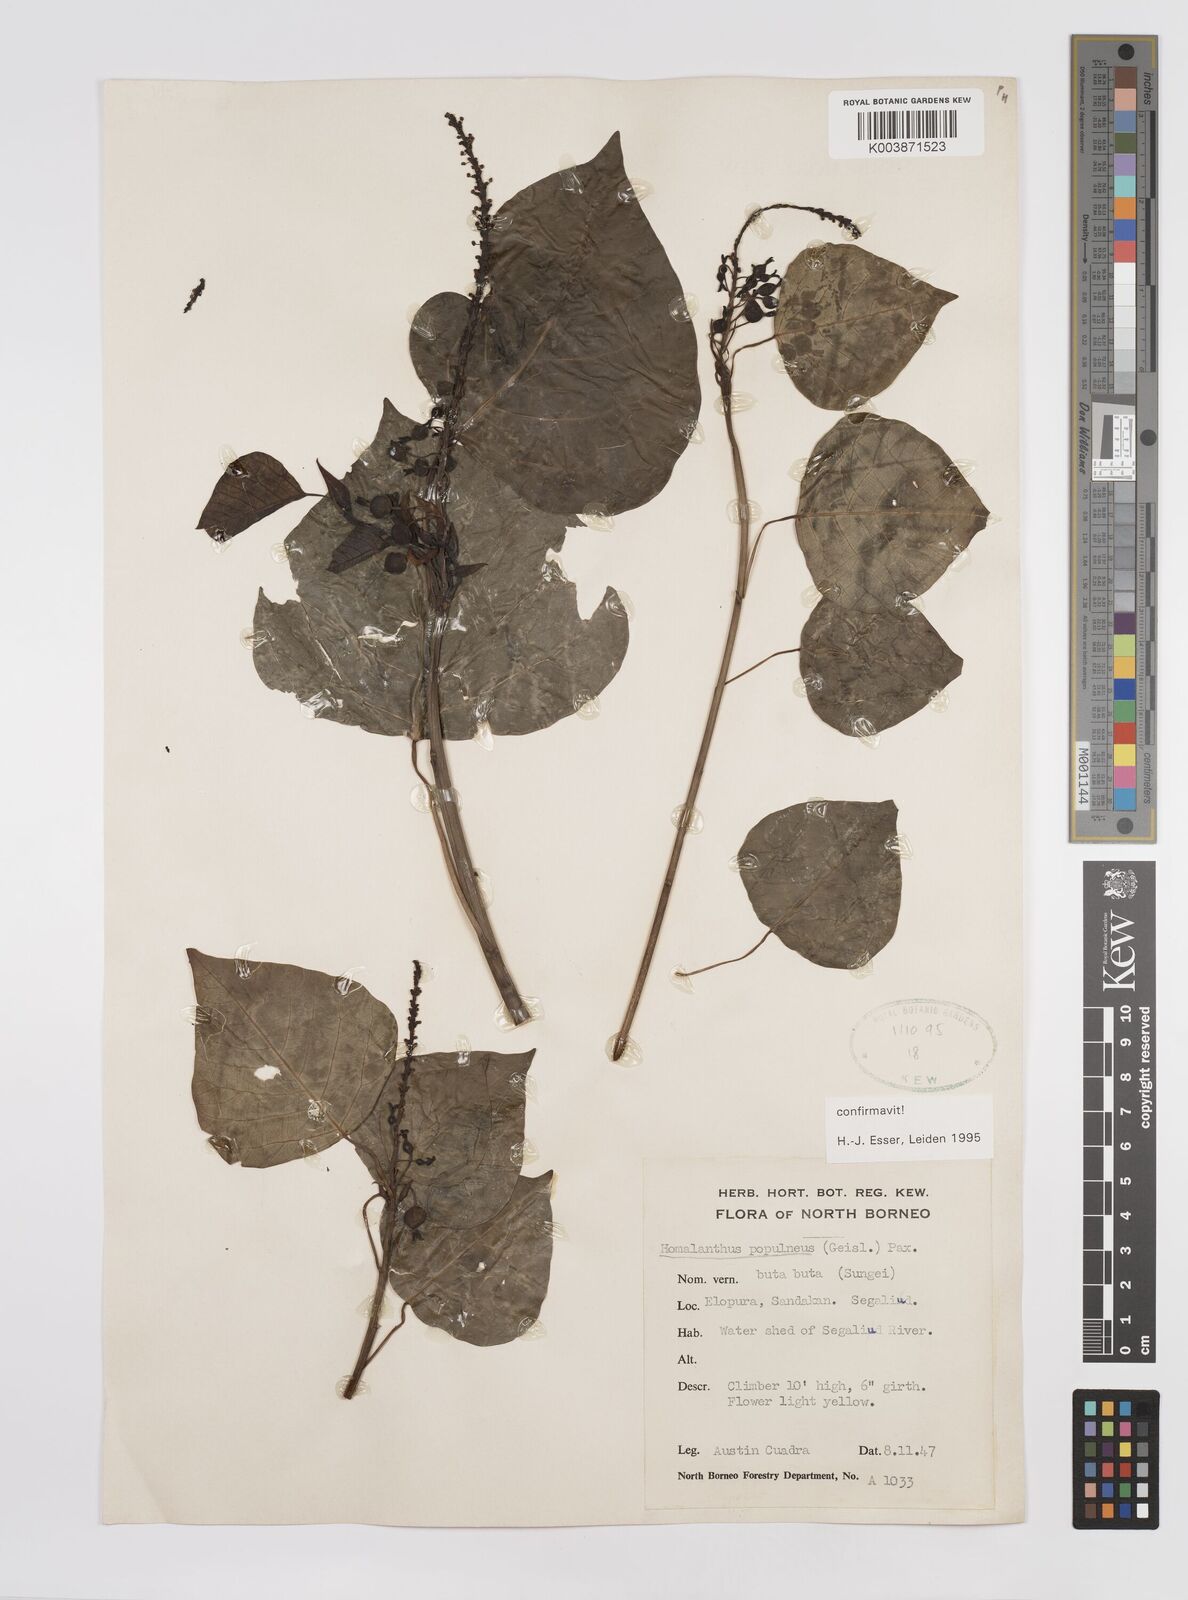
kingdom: Plantae
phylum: Tracheophyta
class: Magnoliopsida
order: Malpighiales
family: Euphorbiaceae
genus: Homalanthus
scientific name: Homalanthus populneus
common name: Spurge
